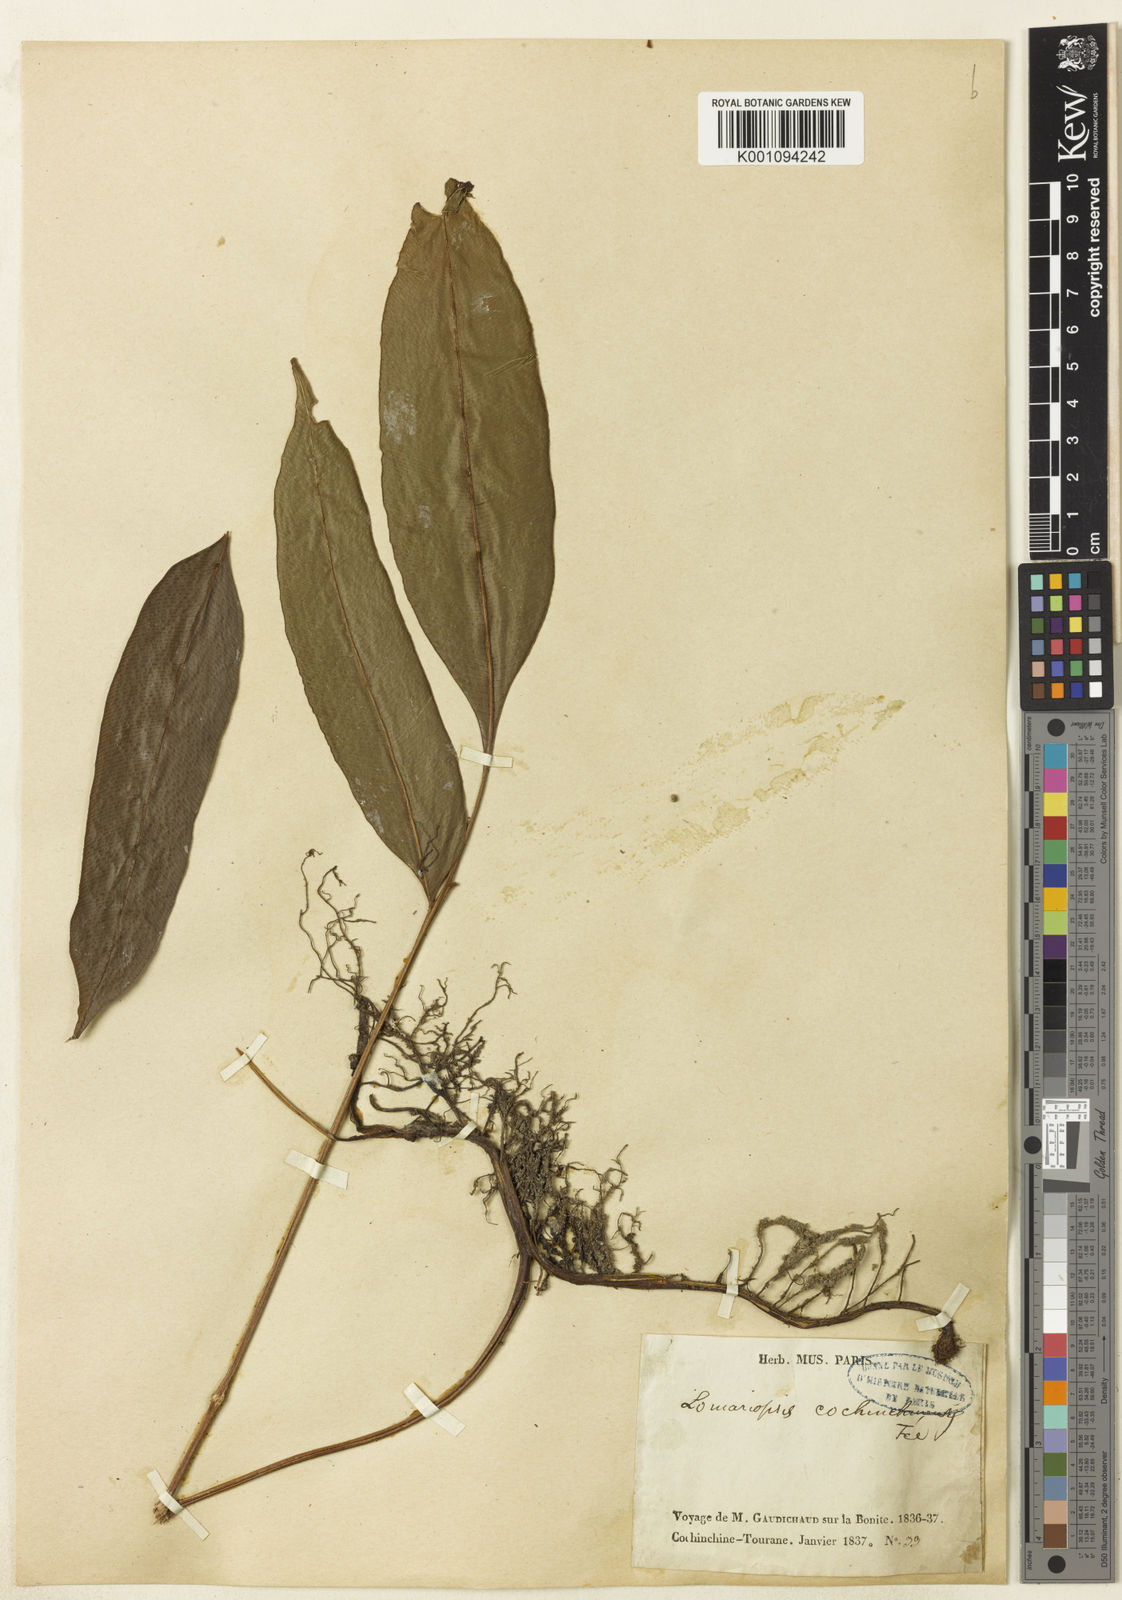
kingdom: Plantae
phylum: Tracheophyta
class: Polypodiopsida
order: Polypodiales
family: Lomariopsidaceae
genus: Lomariopsis
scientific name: Lomariopsis
